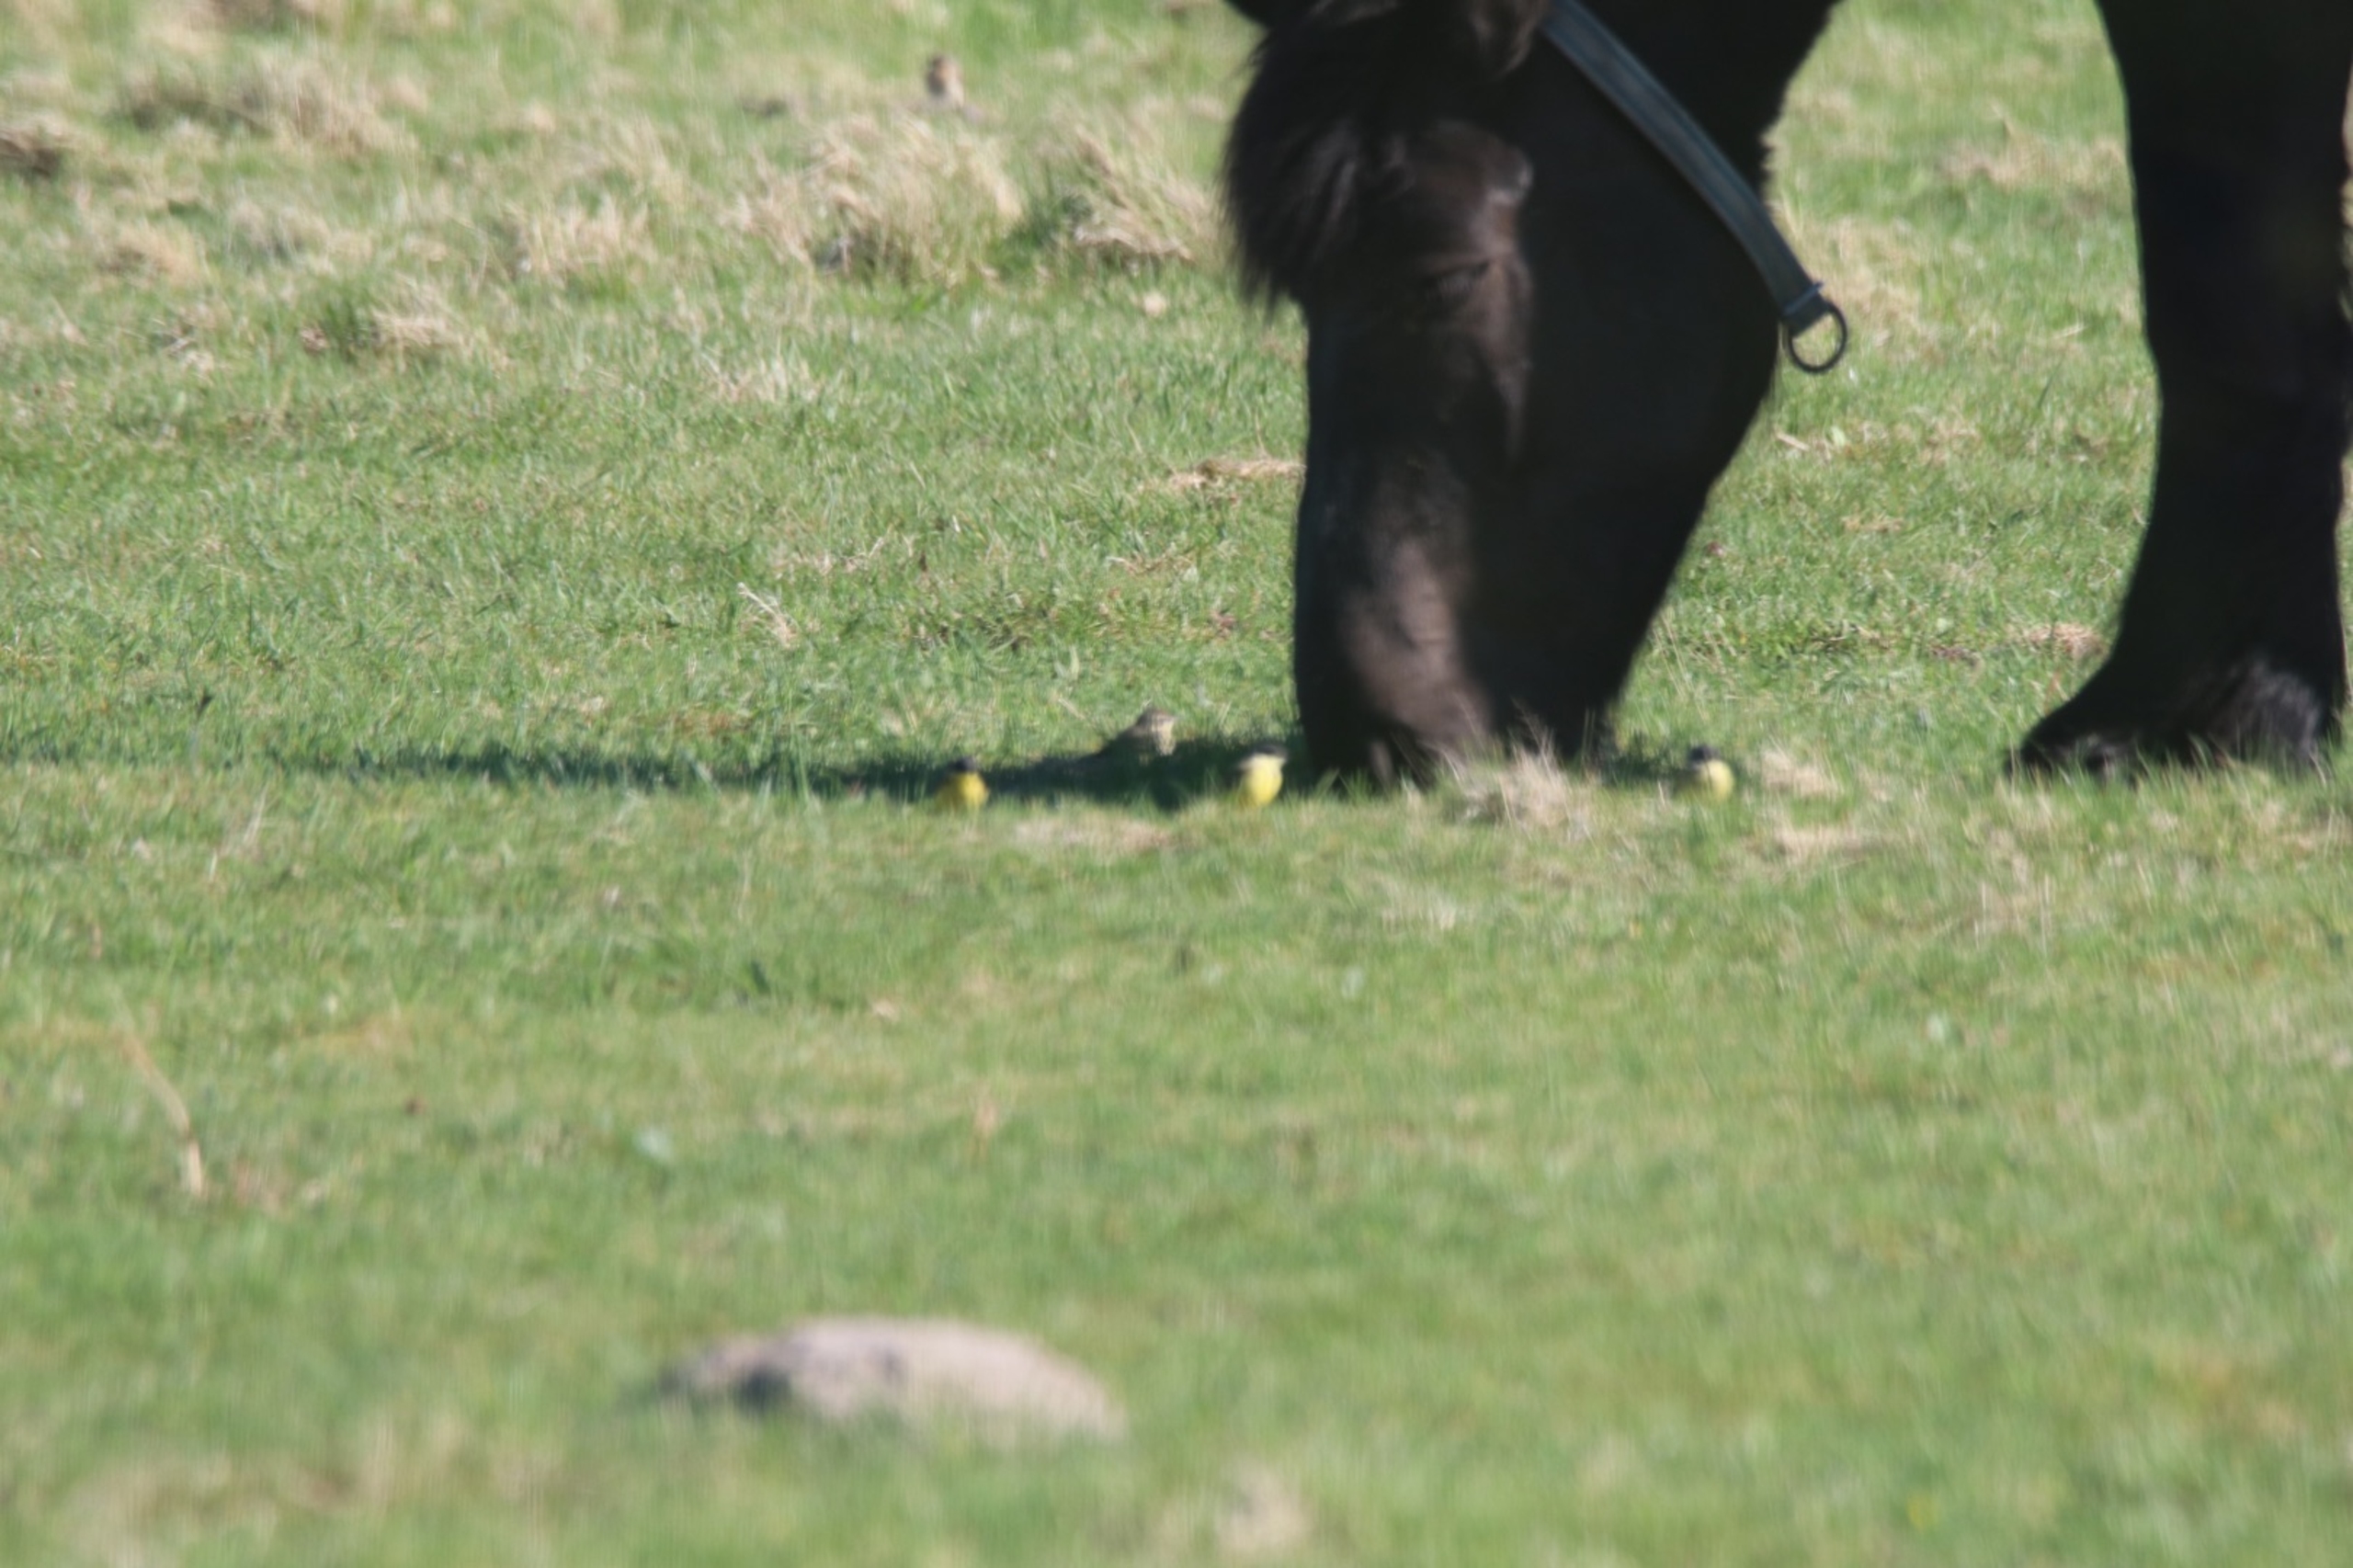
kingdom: Animalia
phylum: Chordata
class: Aves
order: Passeriformes
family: Motacillidae
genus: Motacilla
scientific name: Motacilla flava
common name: Nordlig vipstjert
